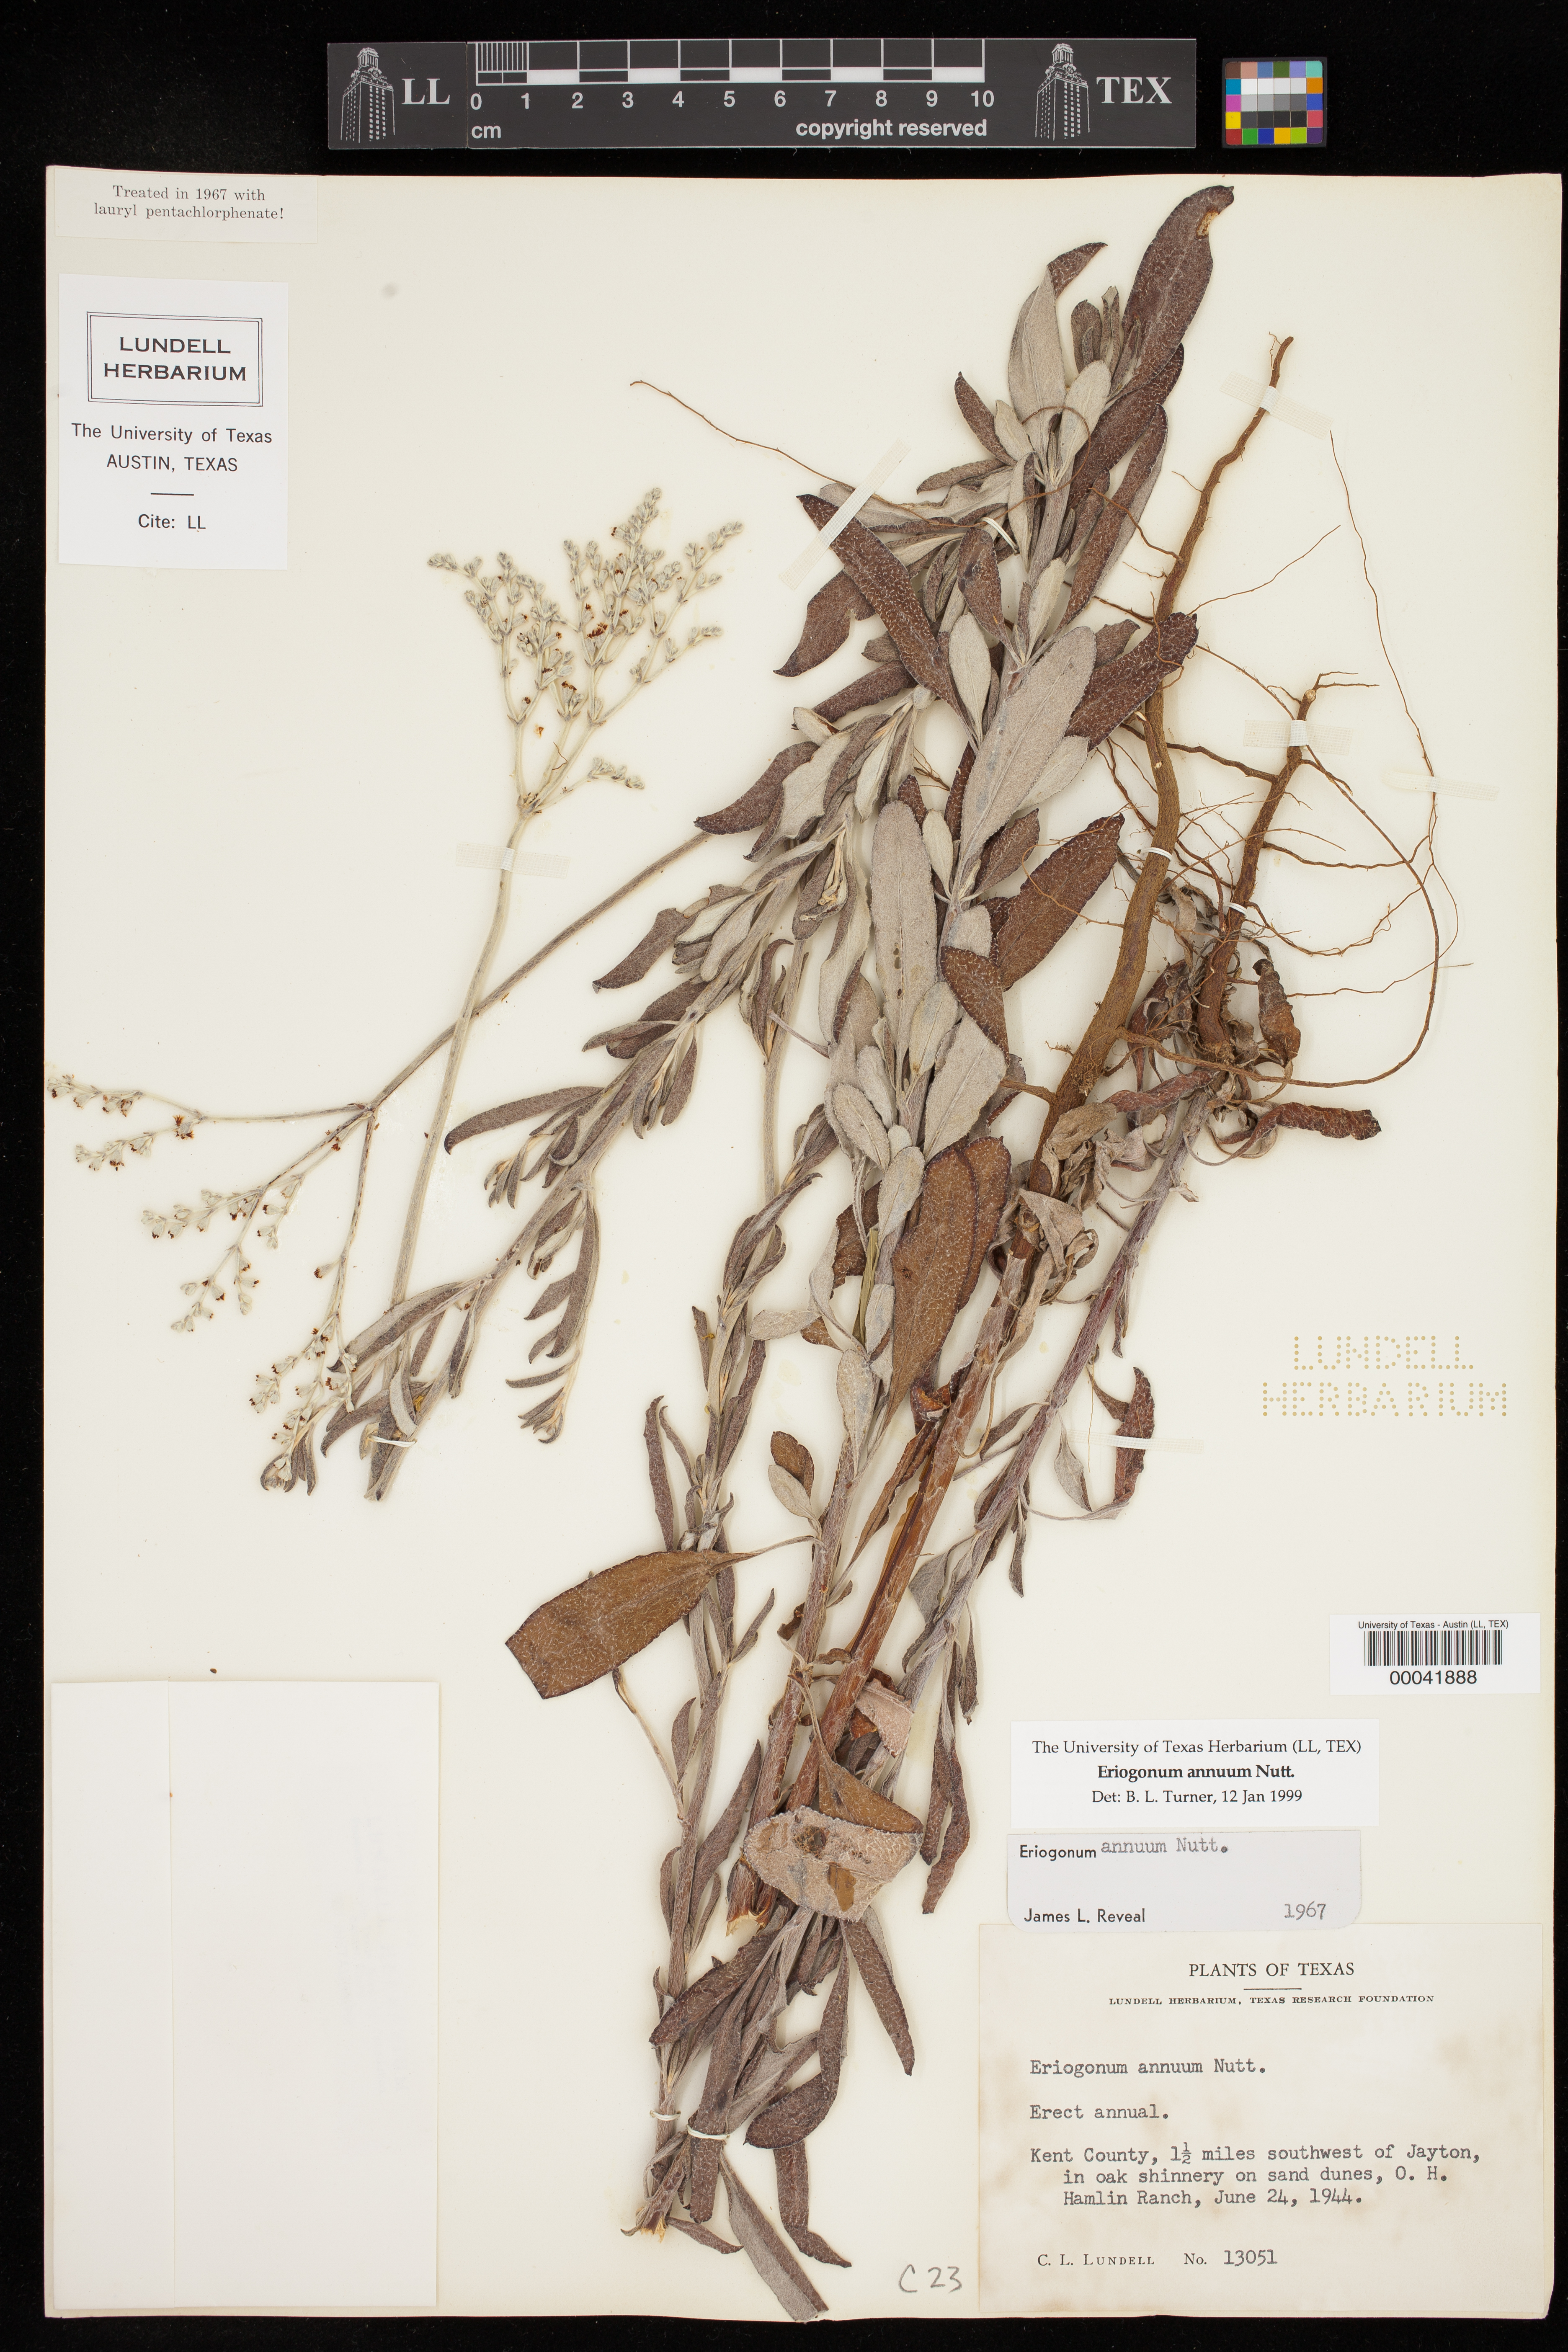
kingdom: Plantae
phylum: Tracheophyta
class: Magnoliopsida
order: Caryophyllales
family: Polygonaceae
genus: Eriogonum
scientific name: Eriogonum annuum
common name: Annual wild buckwheat
